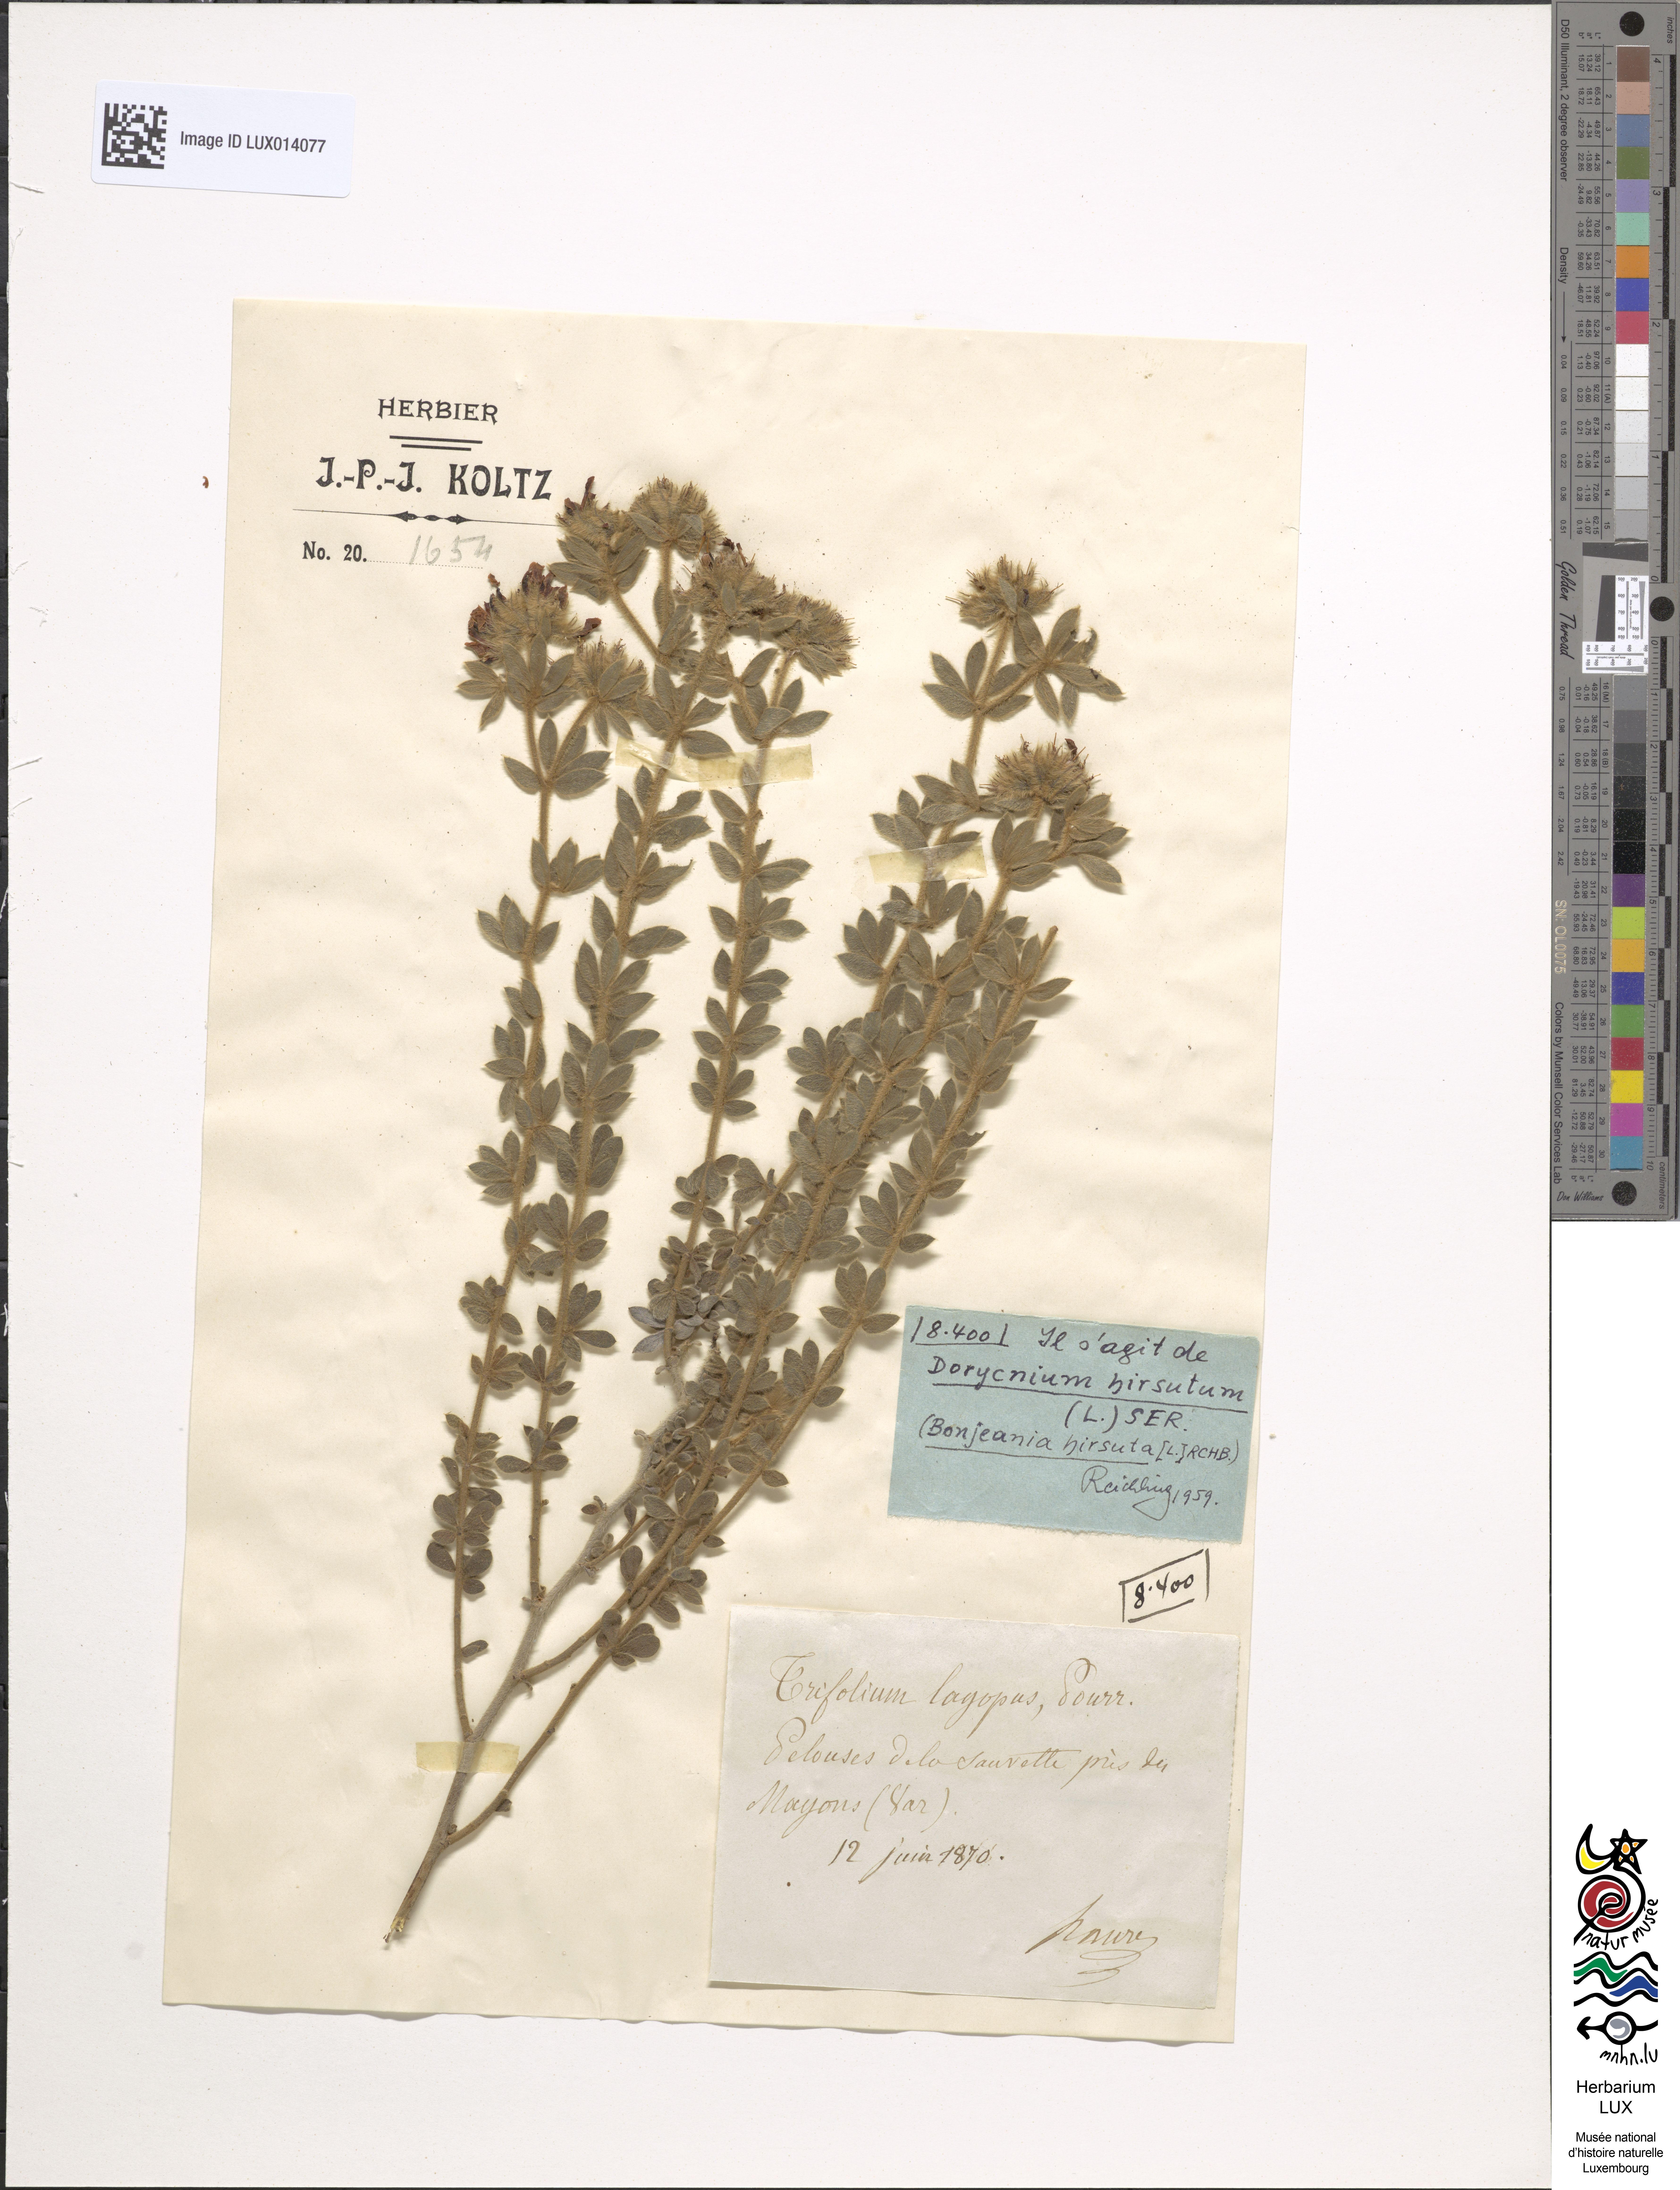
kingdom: Plantae
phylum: Tracheophyta
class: Magnoliopsida
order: Fabales
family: Fabaceae
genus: Lotus
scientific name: Lotus hirsutus
